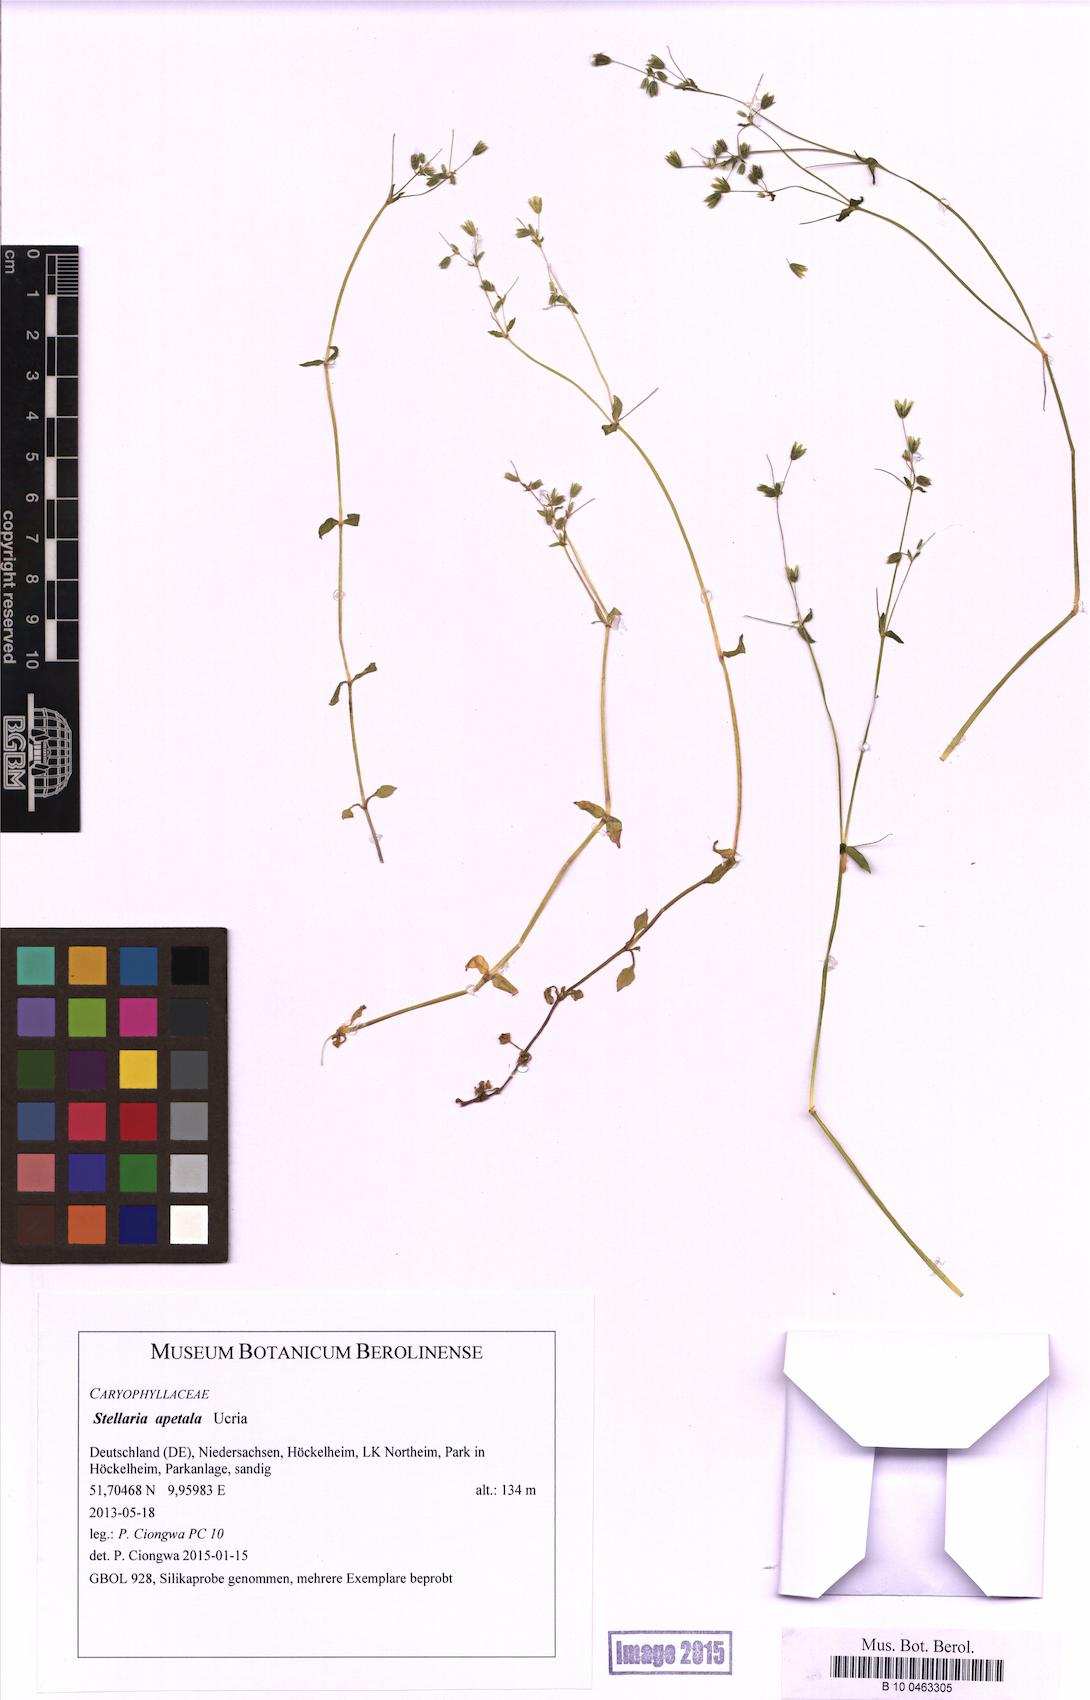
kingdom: Plantae
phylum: Tracheophyta
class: Magnoliopsida
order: Caryophyllales
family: Caryophyllaceae
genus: Stellaria
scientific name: Stellaria apetala
